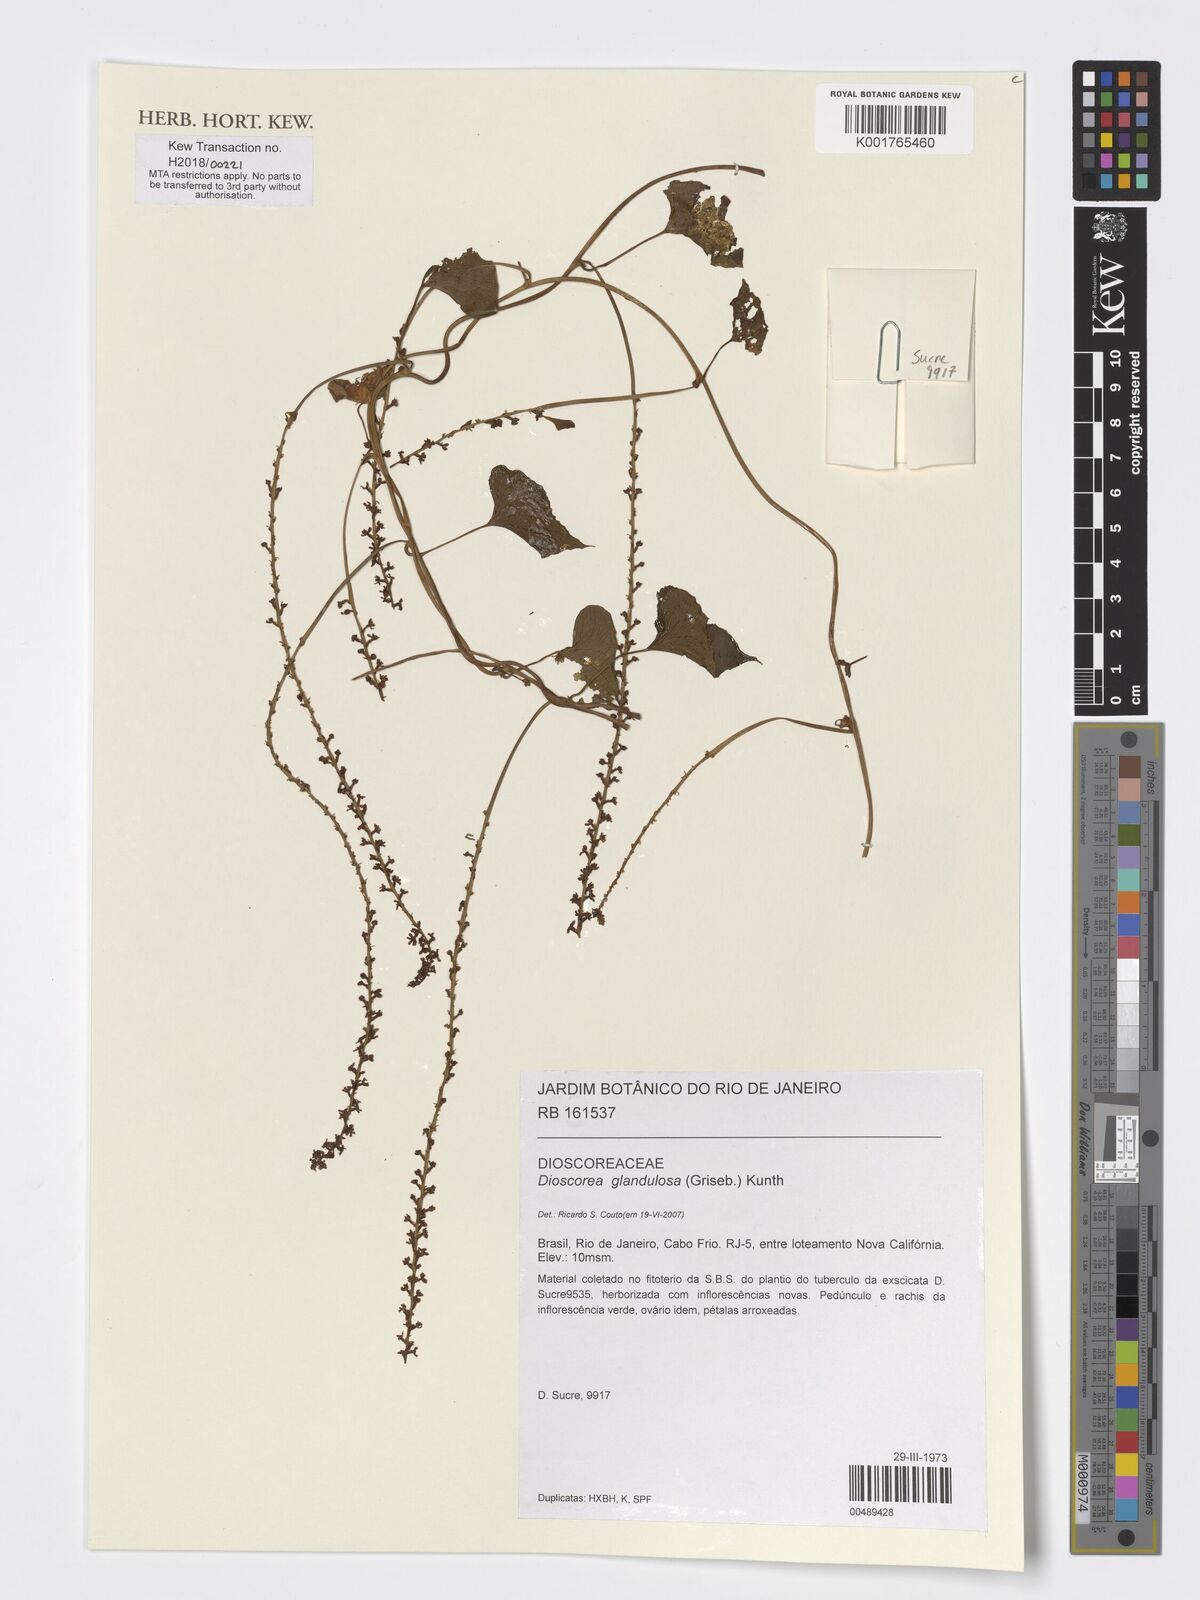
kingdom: Plantae
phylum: Tracheophyta
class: Liliopsida
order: Dioscoreales
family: Dioscoreaceae
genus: Dioscorea
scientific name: Dioscorea glandulosa
